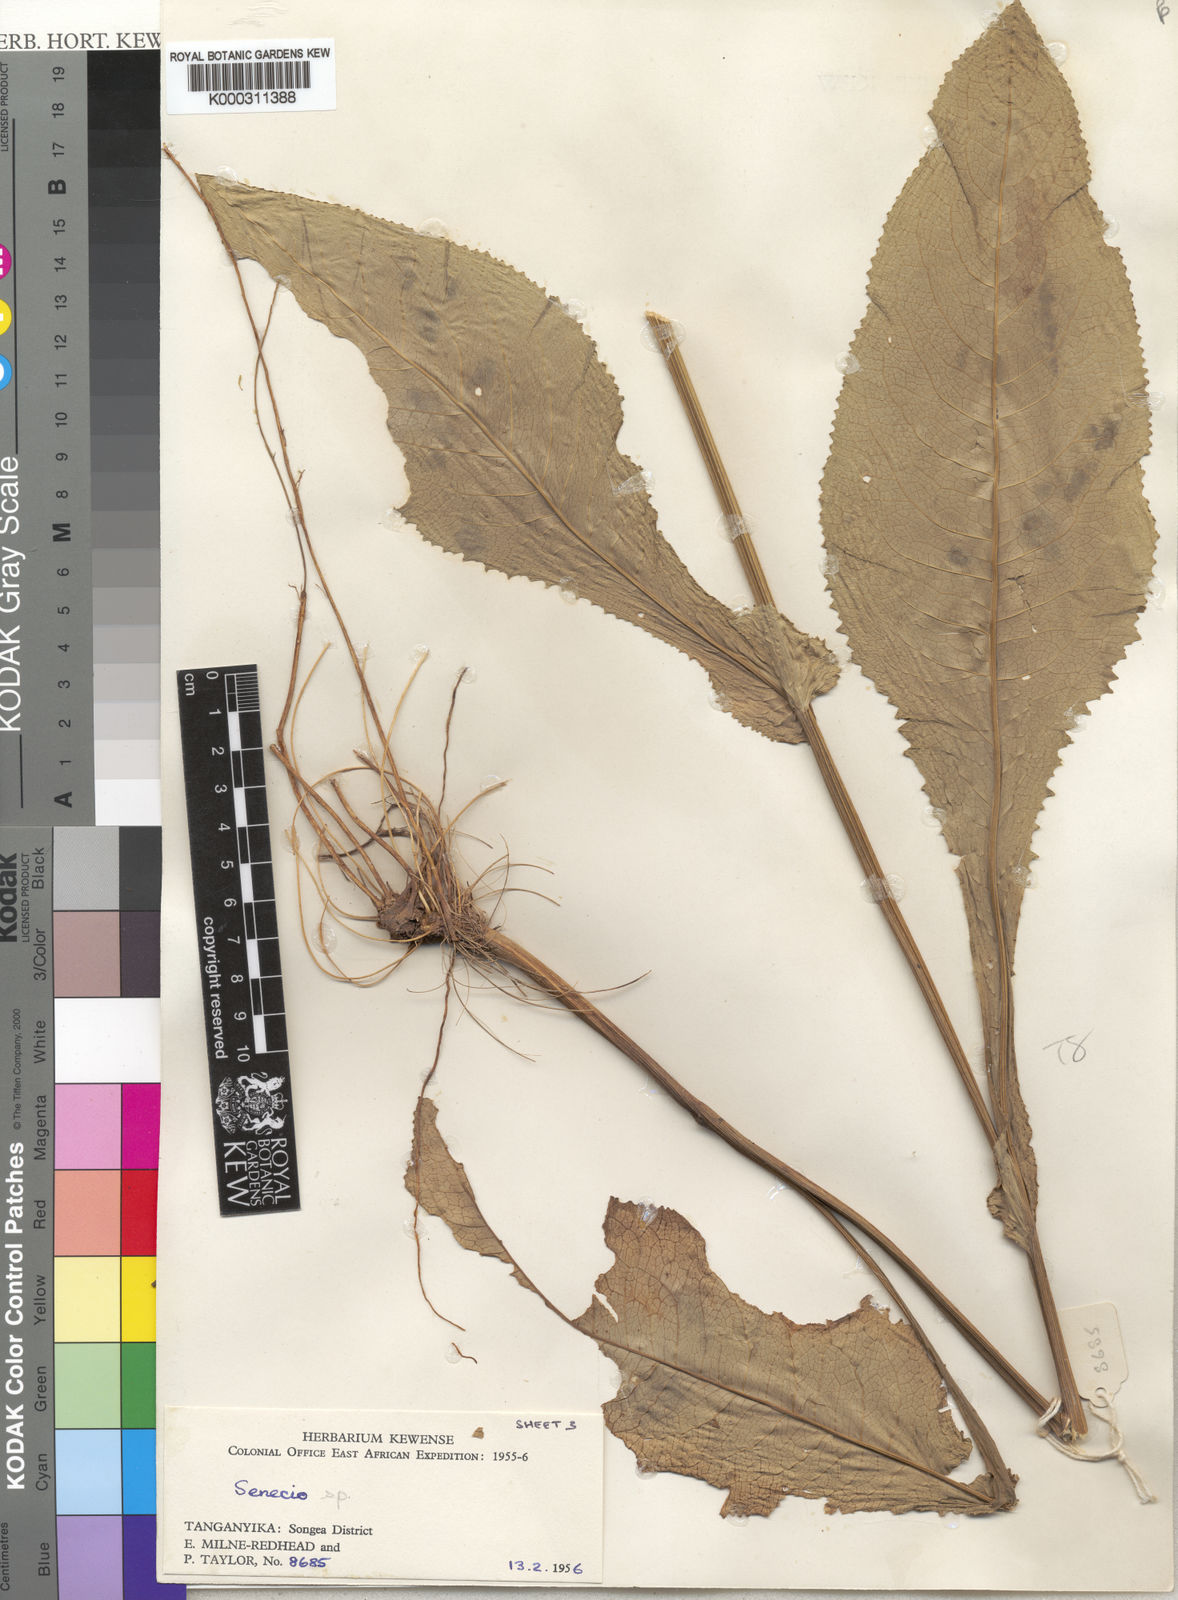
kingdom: Plantae
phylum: Tracheophyta
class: Magnoliopsida
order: Asterales
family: Asteraceae
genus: Senecio
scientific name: Senecio exarachnoideus
